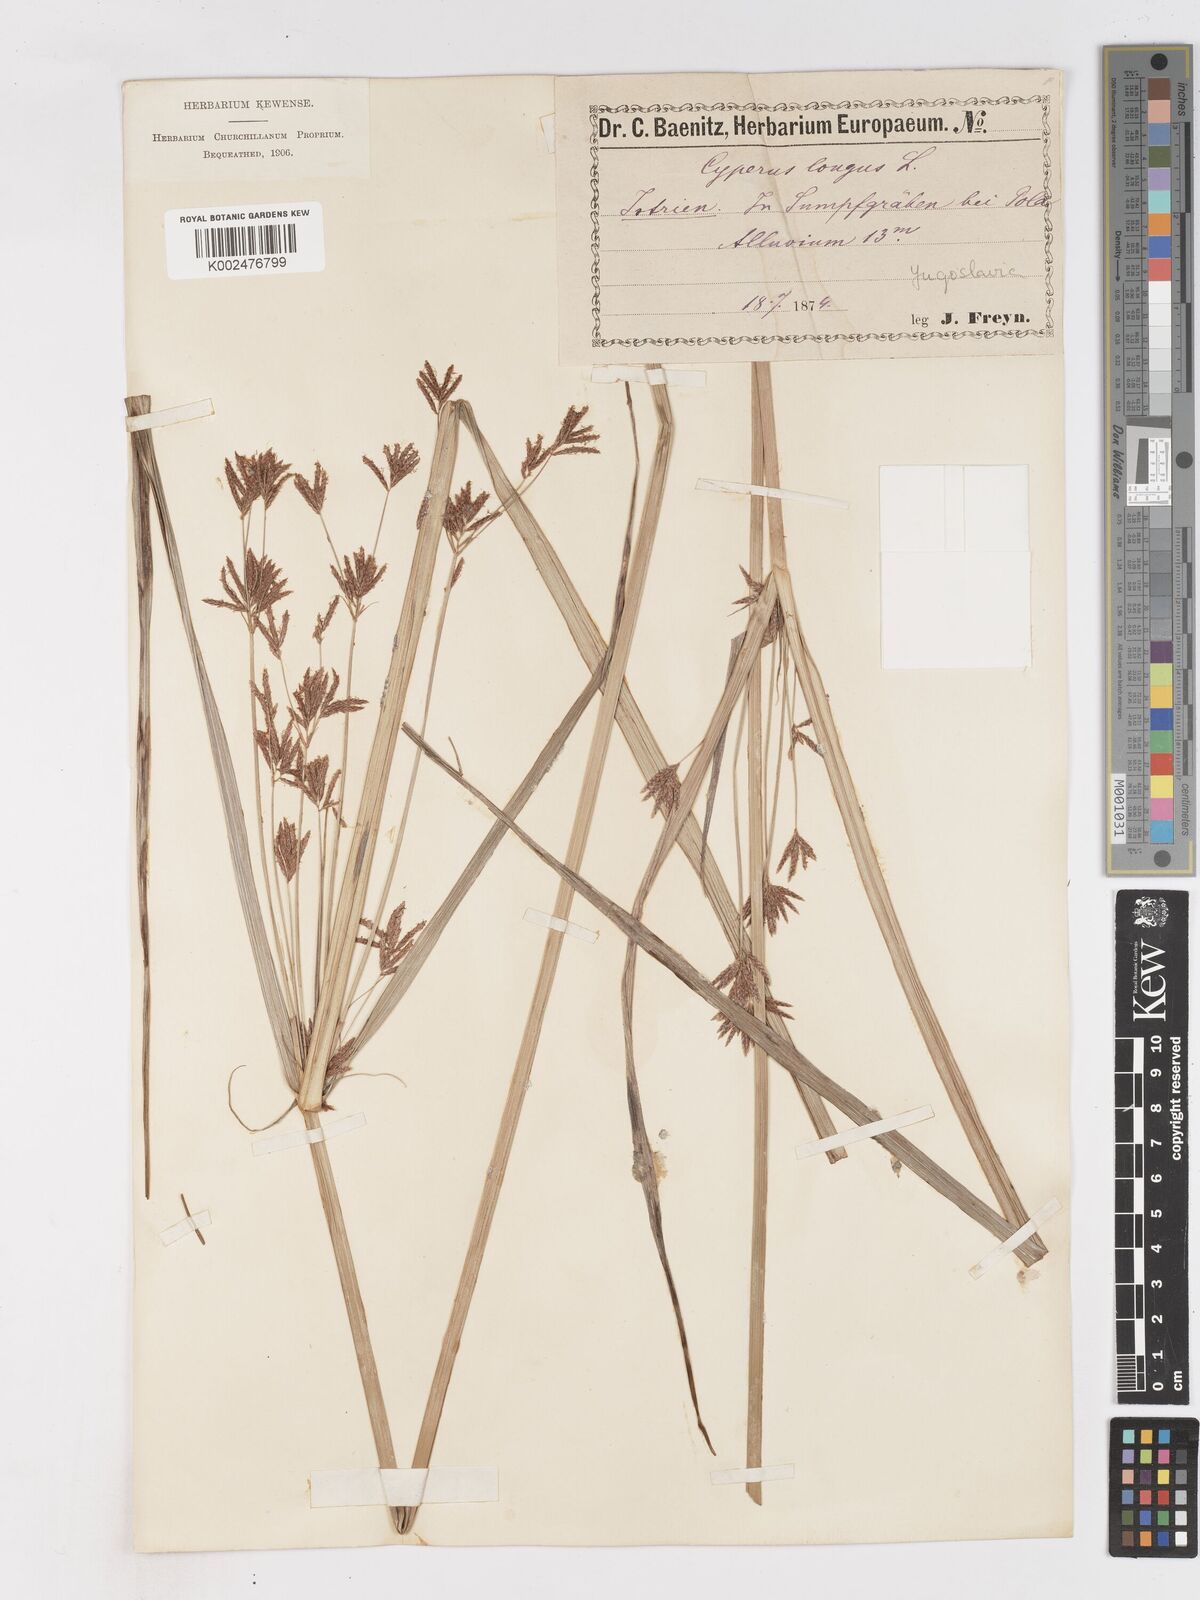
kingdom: Plantae
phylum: Tracheophyta
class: Liliopsida
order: Poales
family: Cyperaceae
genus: Cyperus
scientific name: Cyperus longus
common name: Galingale
